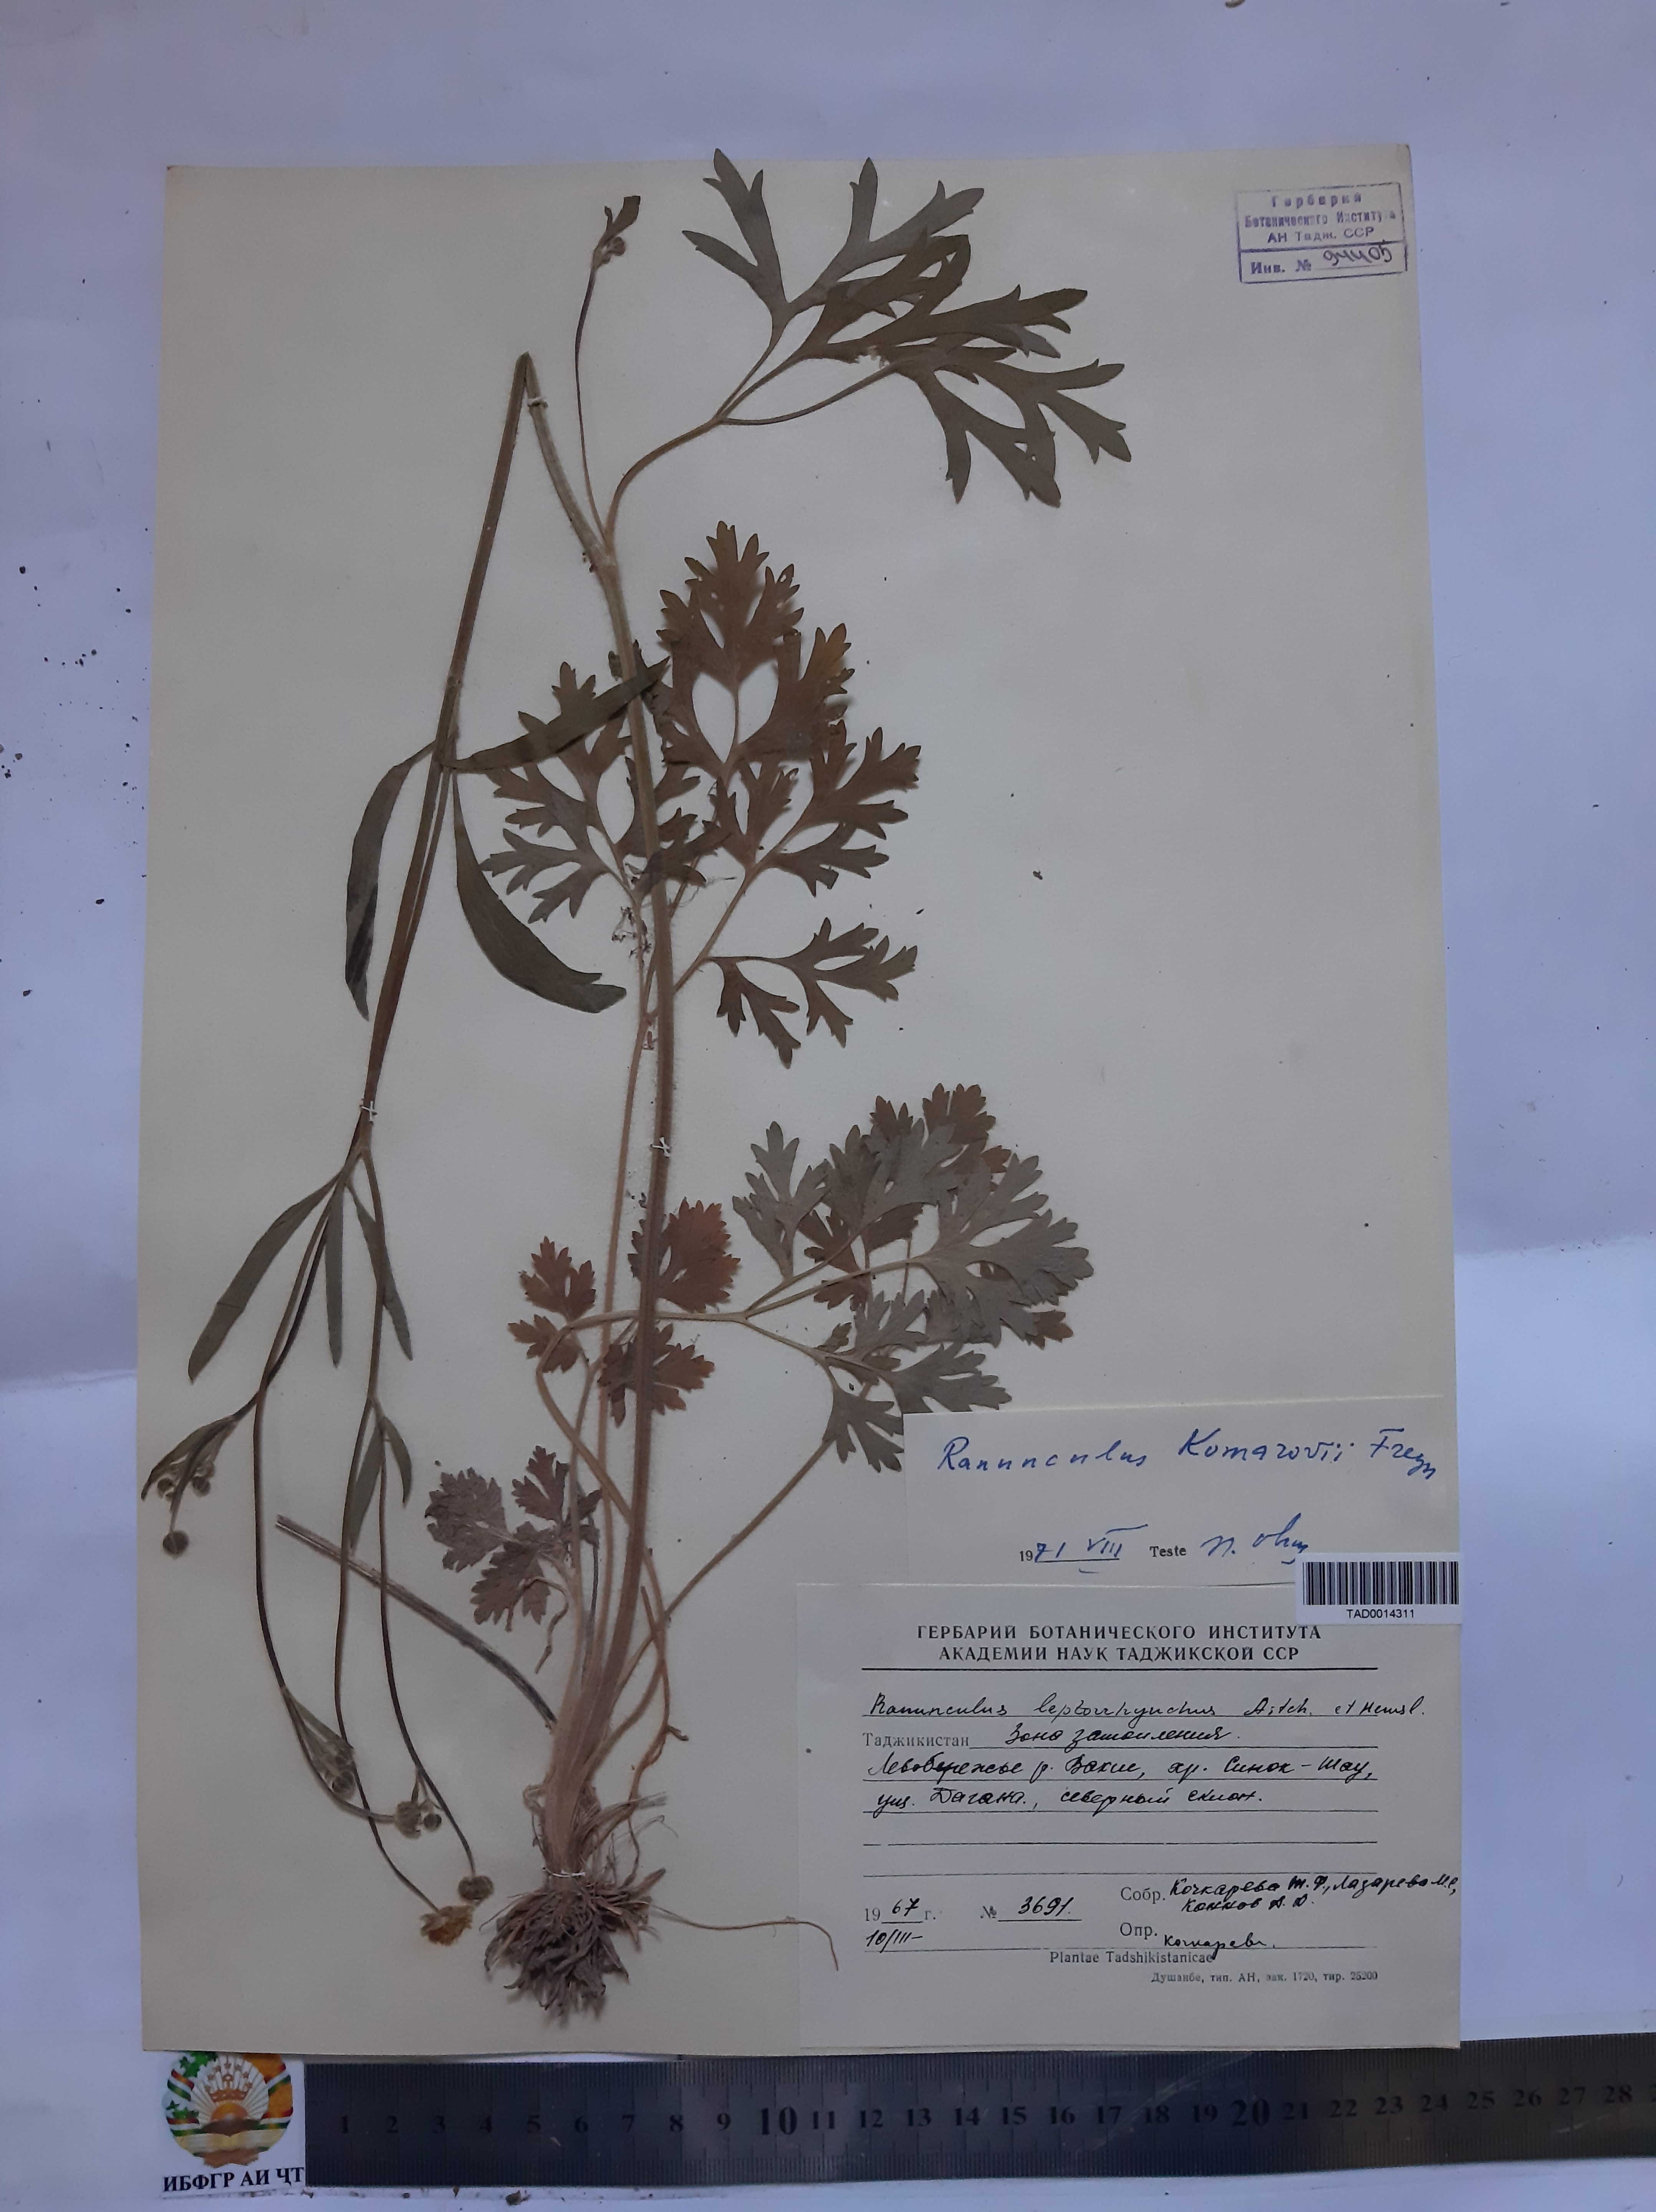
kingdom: Plantae
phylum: Tracheophyta
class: Magnoliopsida
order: Ranunculales
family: Ranunculaceae
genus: Ranunculus
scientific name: Ranunculus leptorrhynchus
